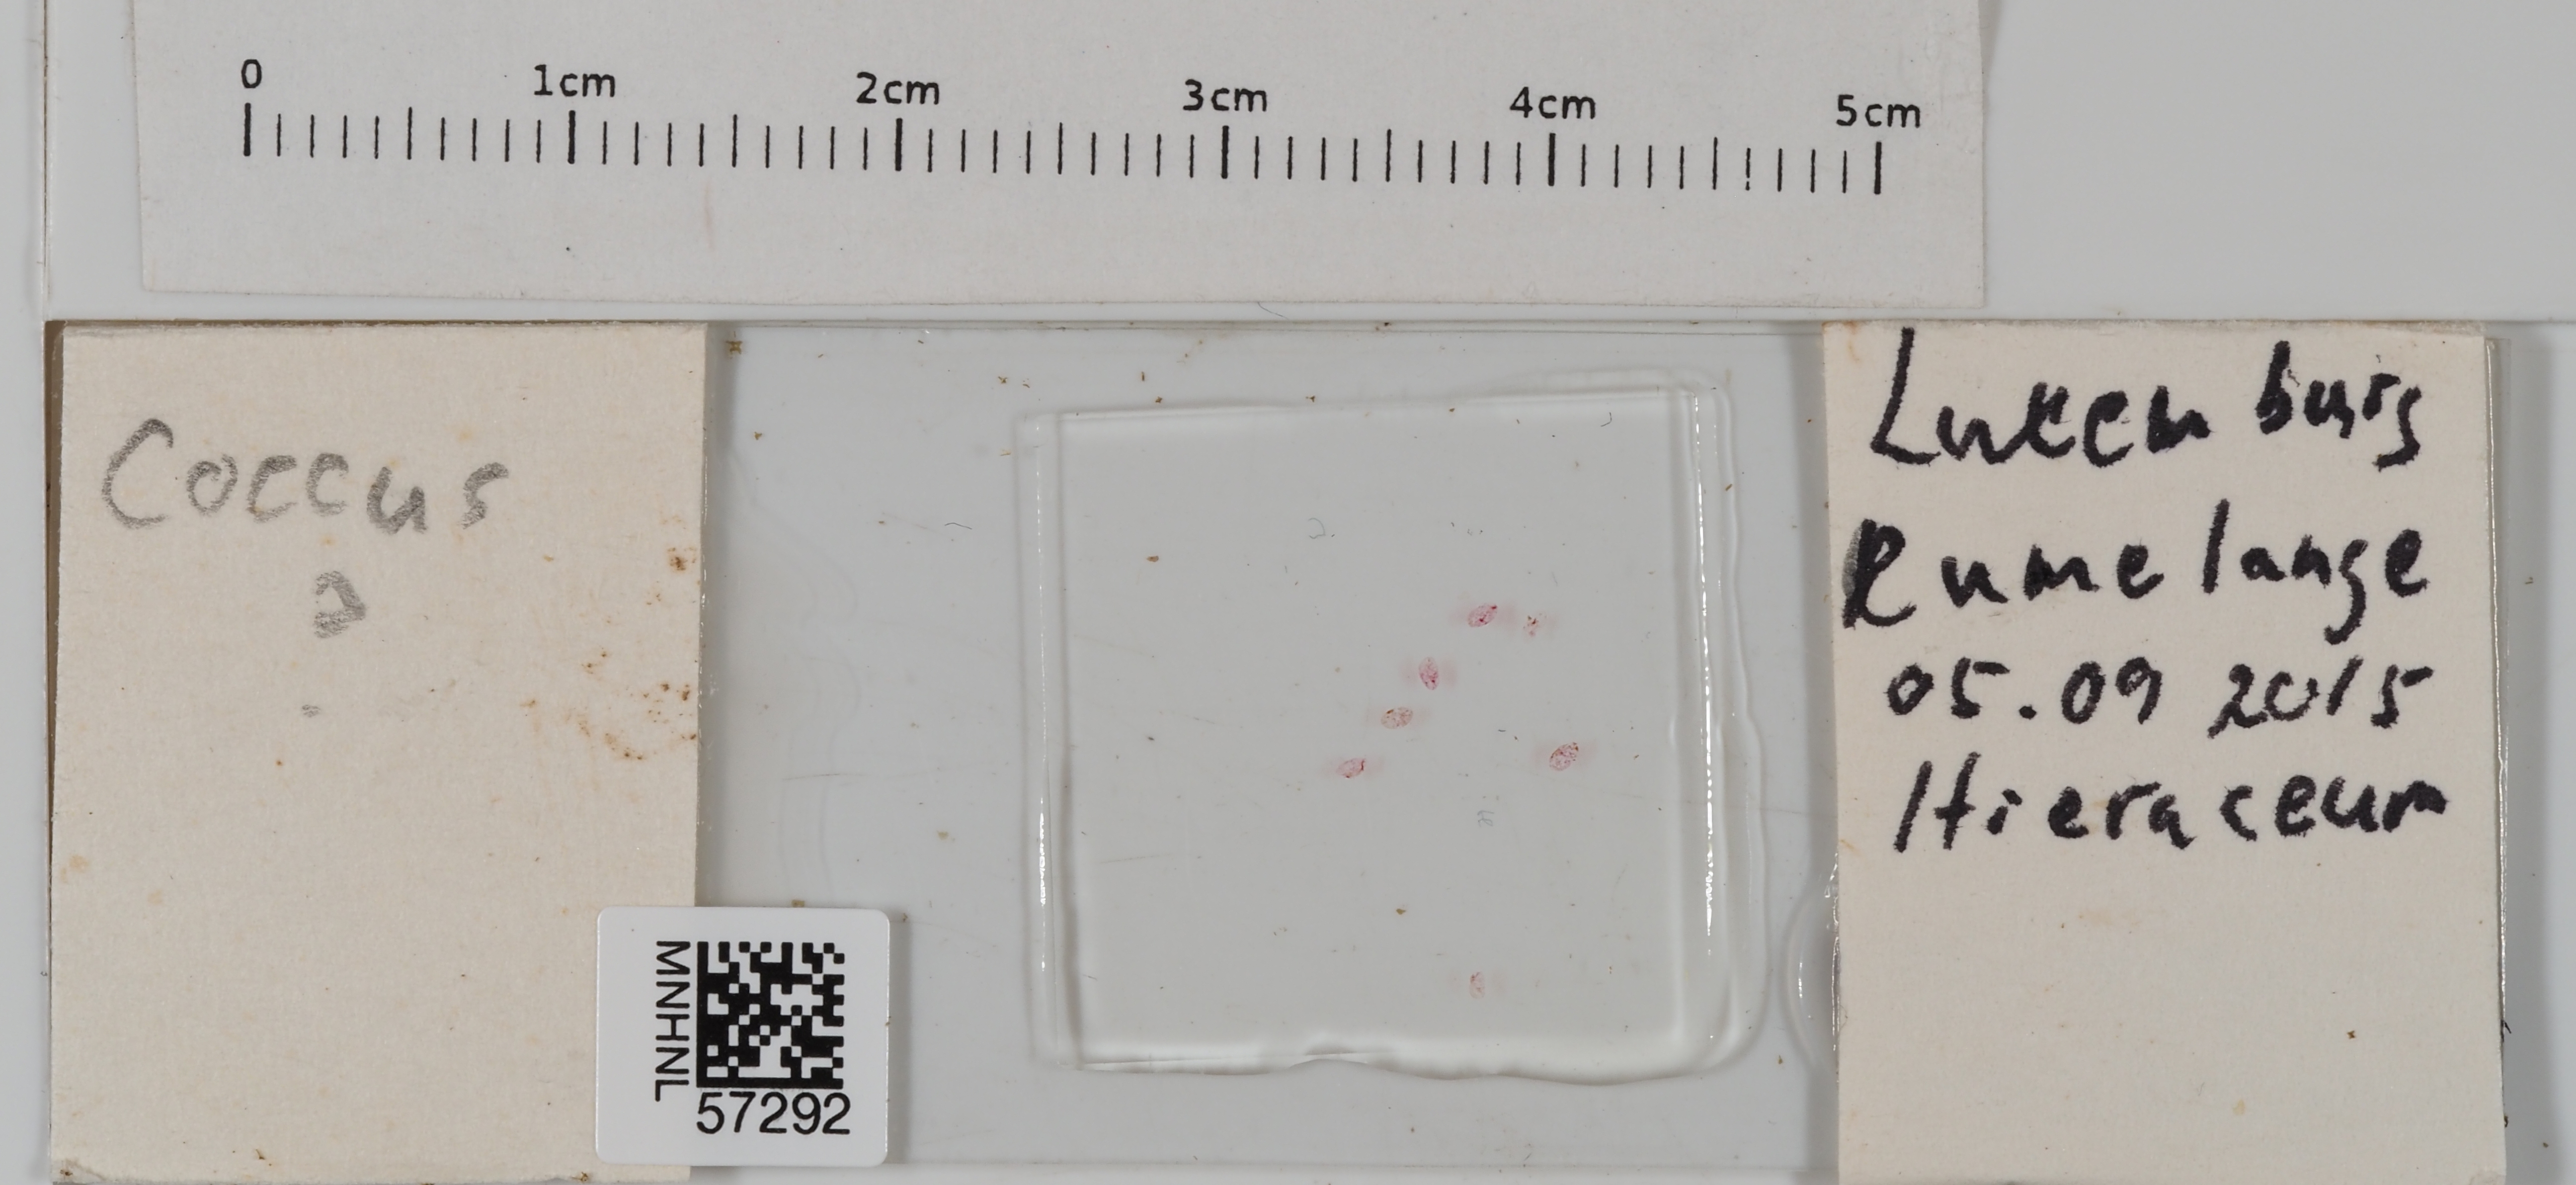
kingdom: Animalia
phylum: Arthropoda
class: Insecta
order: Hemiptera
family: Coccidae
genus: Coccus
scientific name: Coccus
